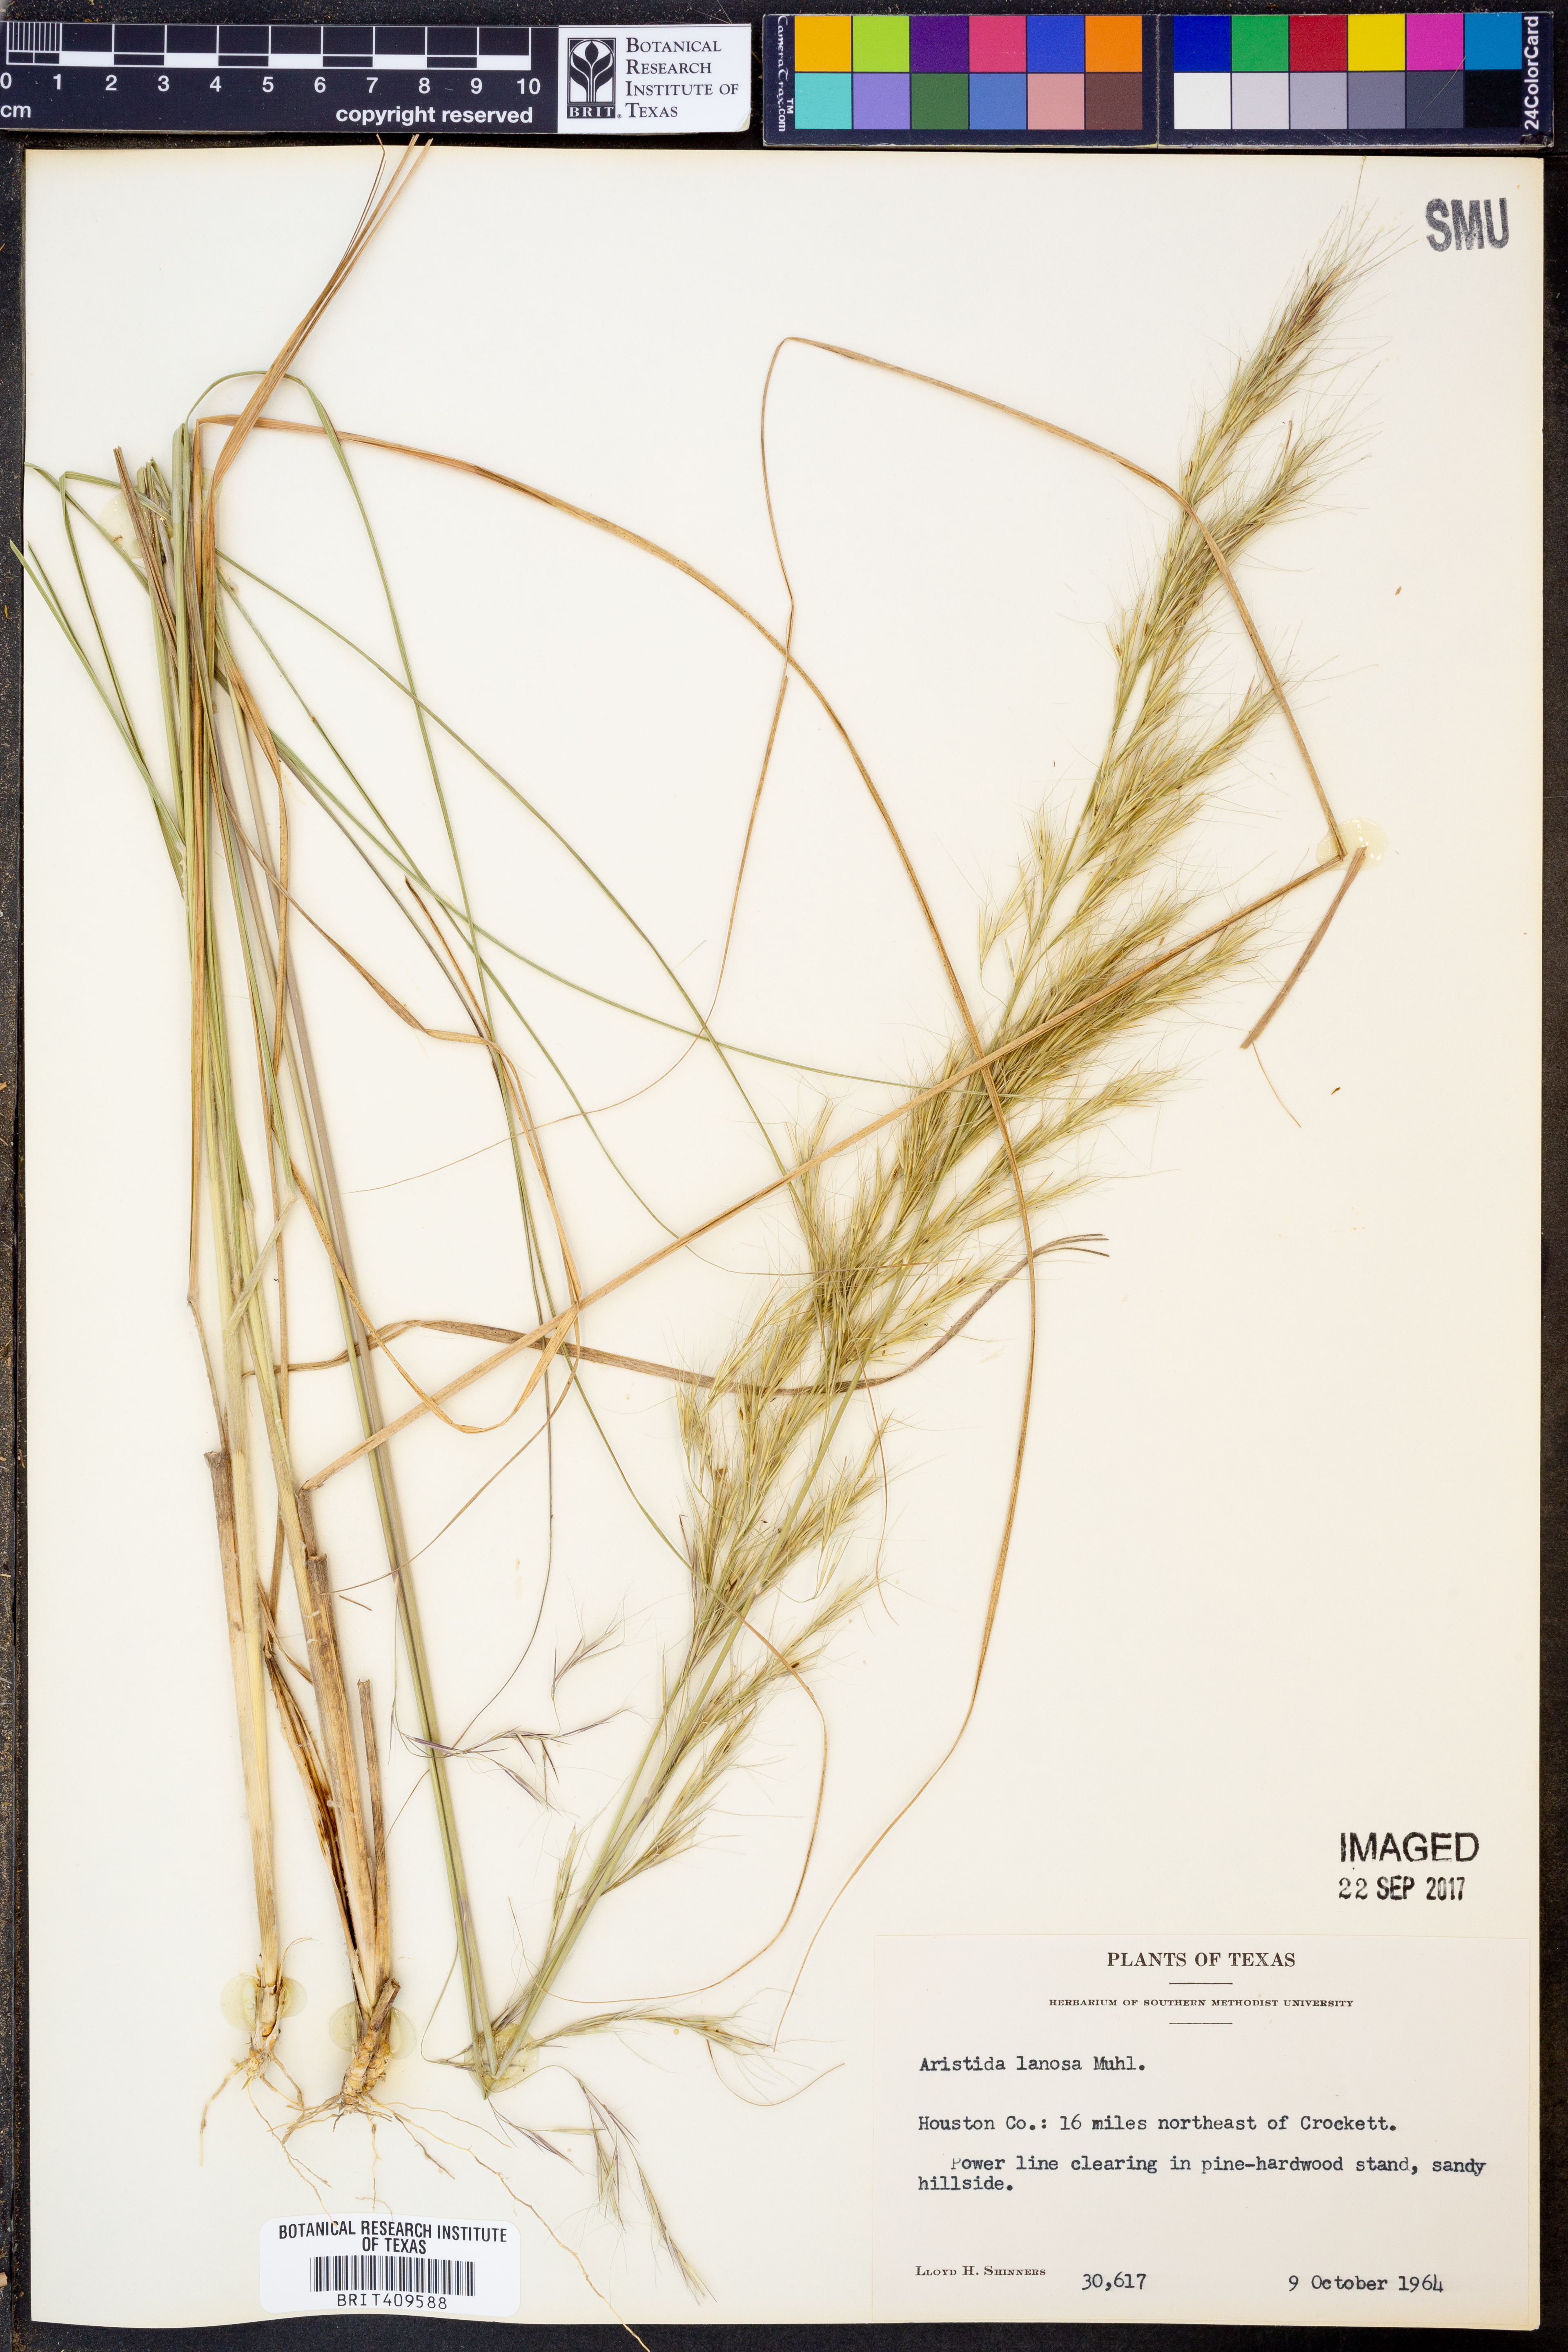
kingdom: Plantae
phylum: Tracheophyta
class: Liliopsida
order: Poales
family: Poaceae
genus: Aristida
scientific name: Aristida lanosa
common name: Woolly three-awn
